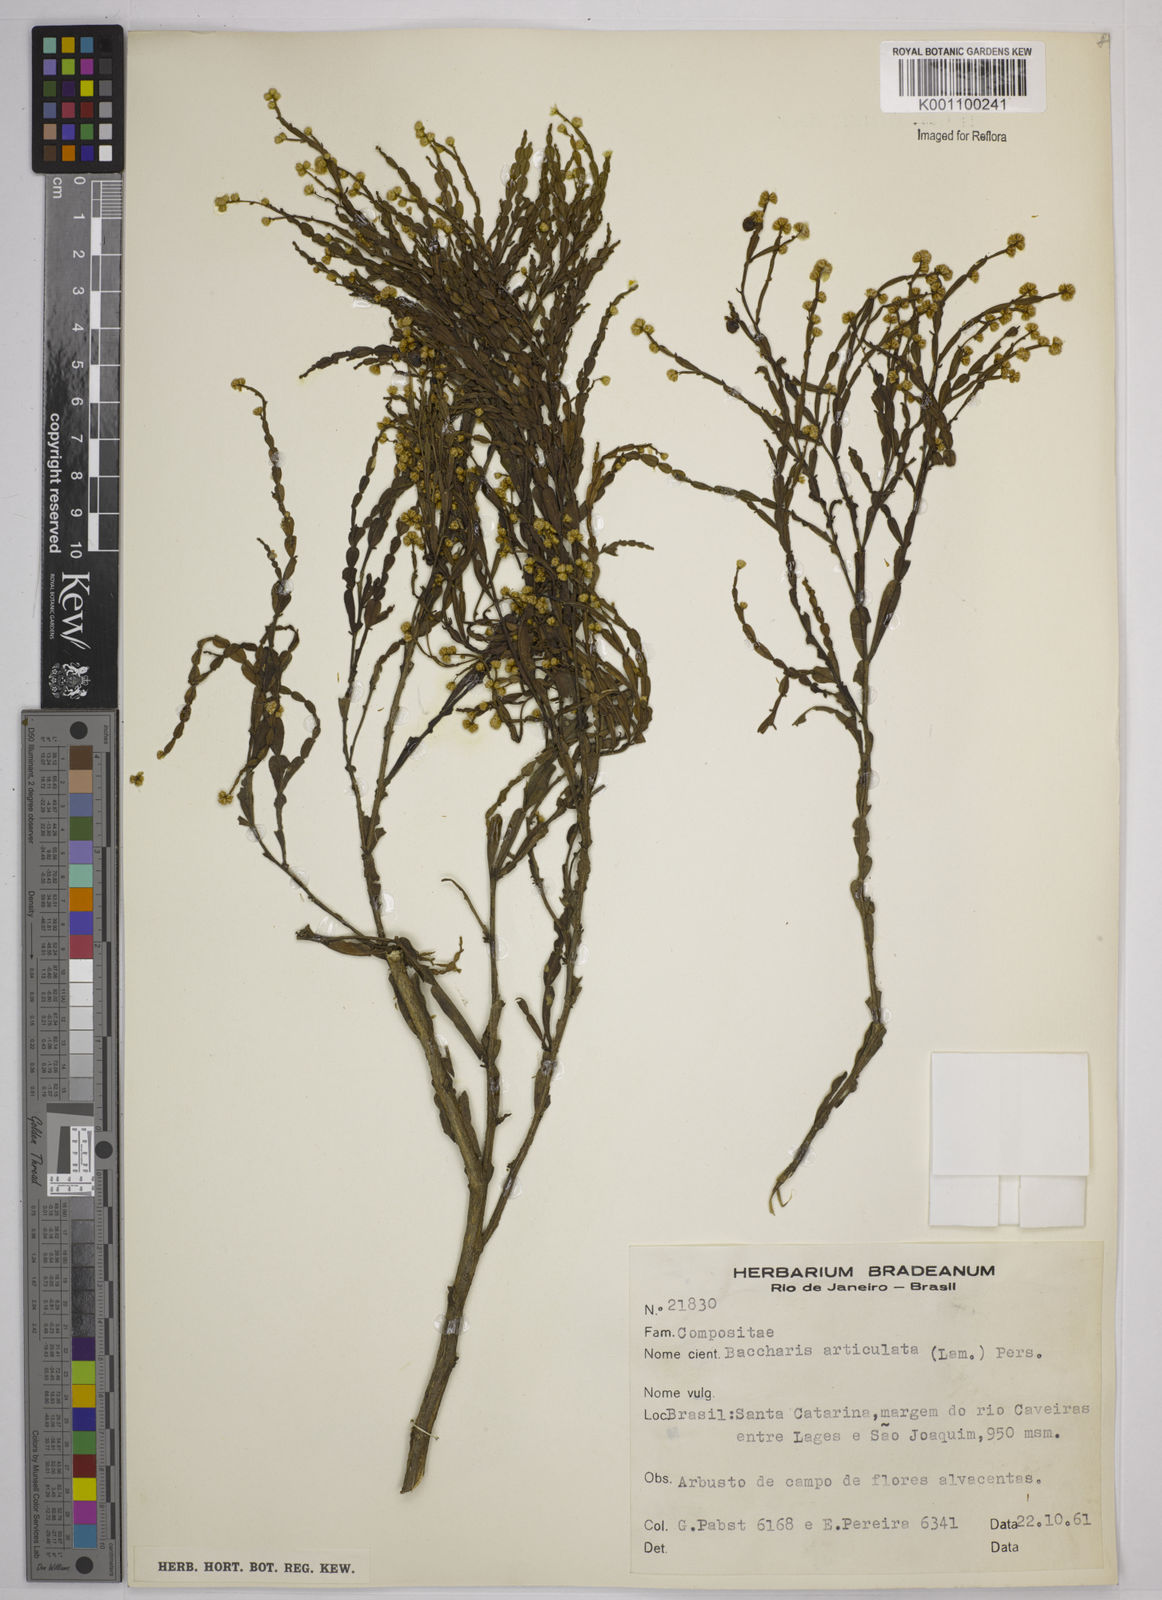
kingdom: Plantae
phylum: Tracheophyta
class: Magnoliopsida
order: Asterales
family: Asteraceae
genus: Baccharis
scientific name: Baccharis
